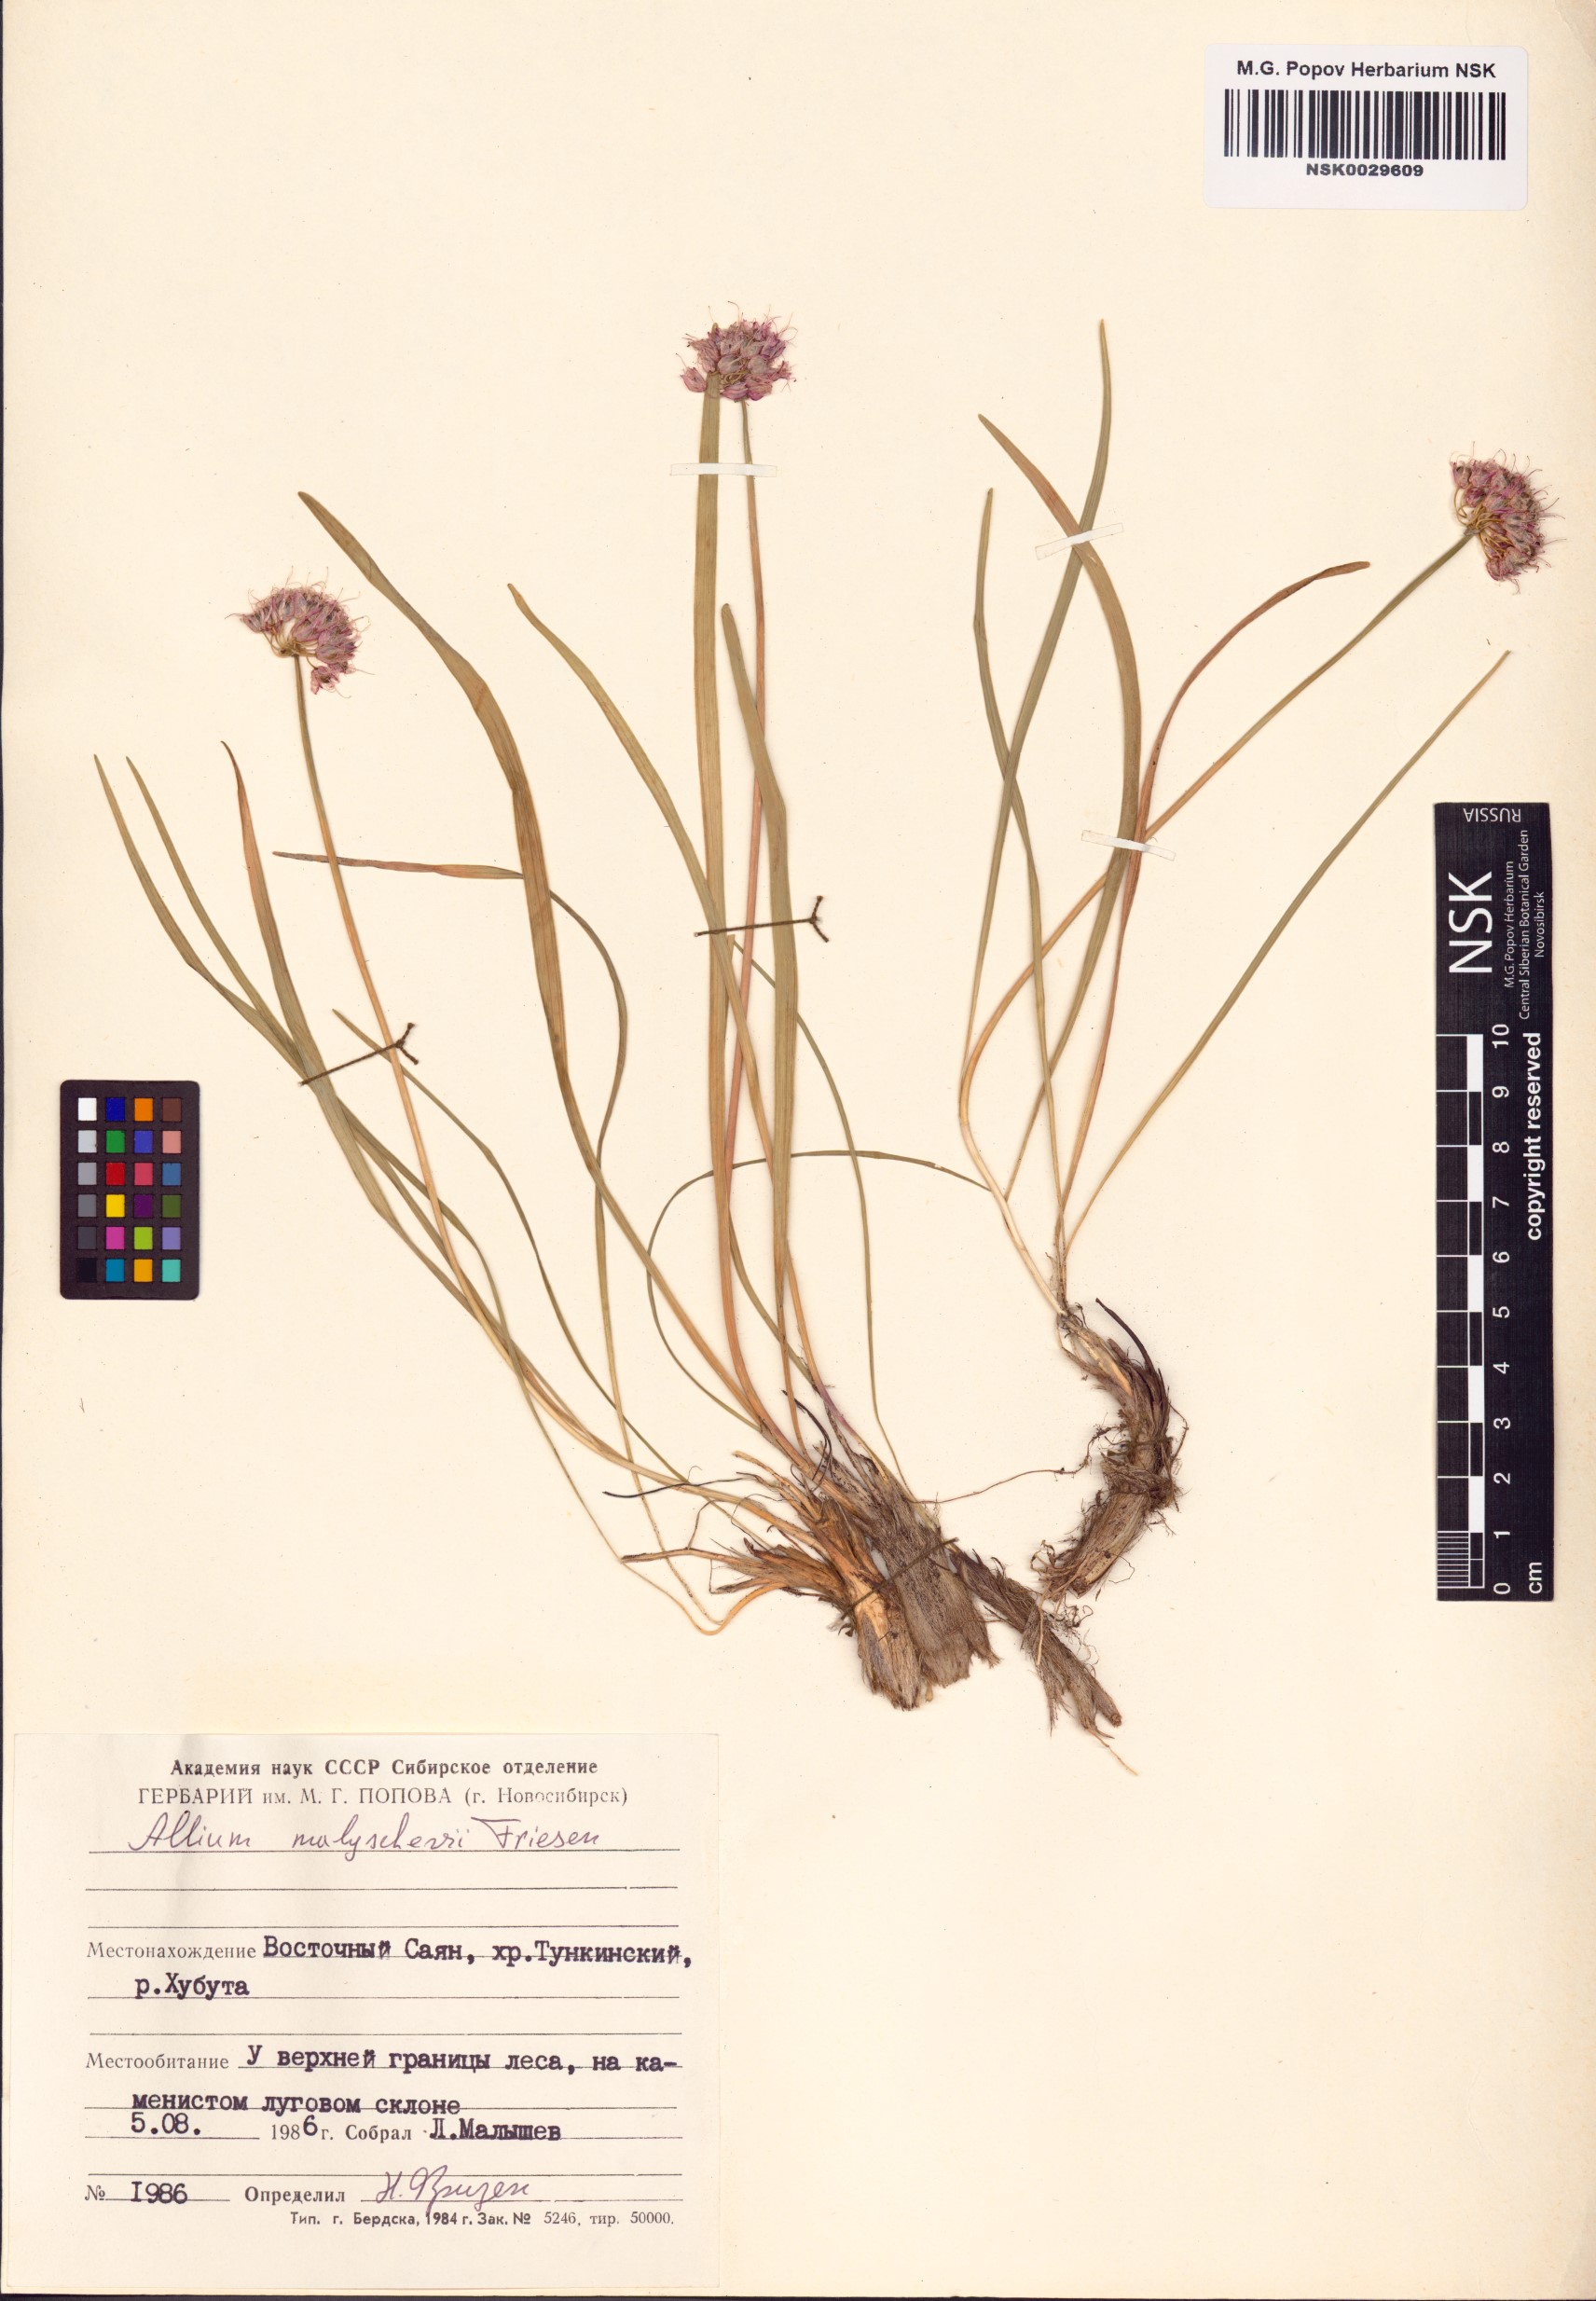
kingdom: Plantae
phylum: Tracheophyta
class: Liliopsida
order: Asparagales
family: Amaryllidaceae
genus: Allium
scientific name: Allium malyschevii
